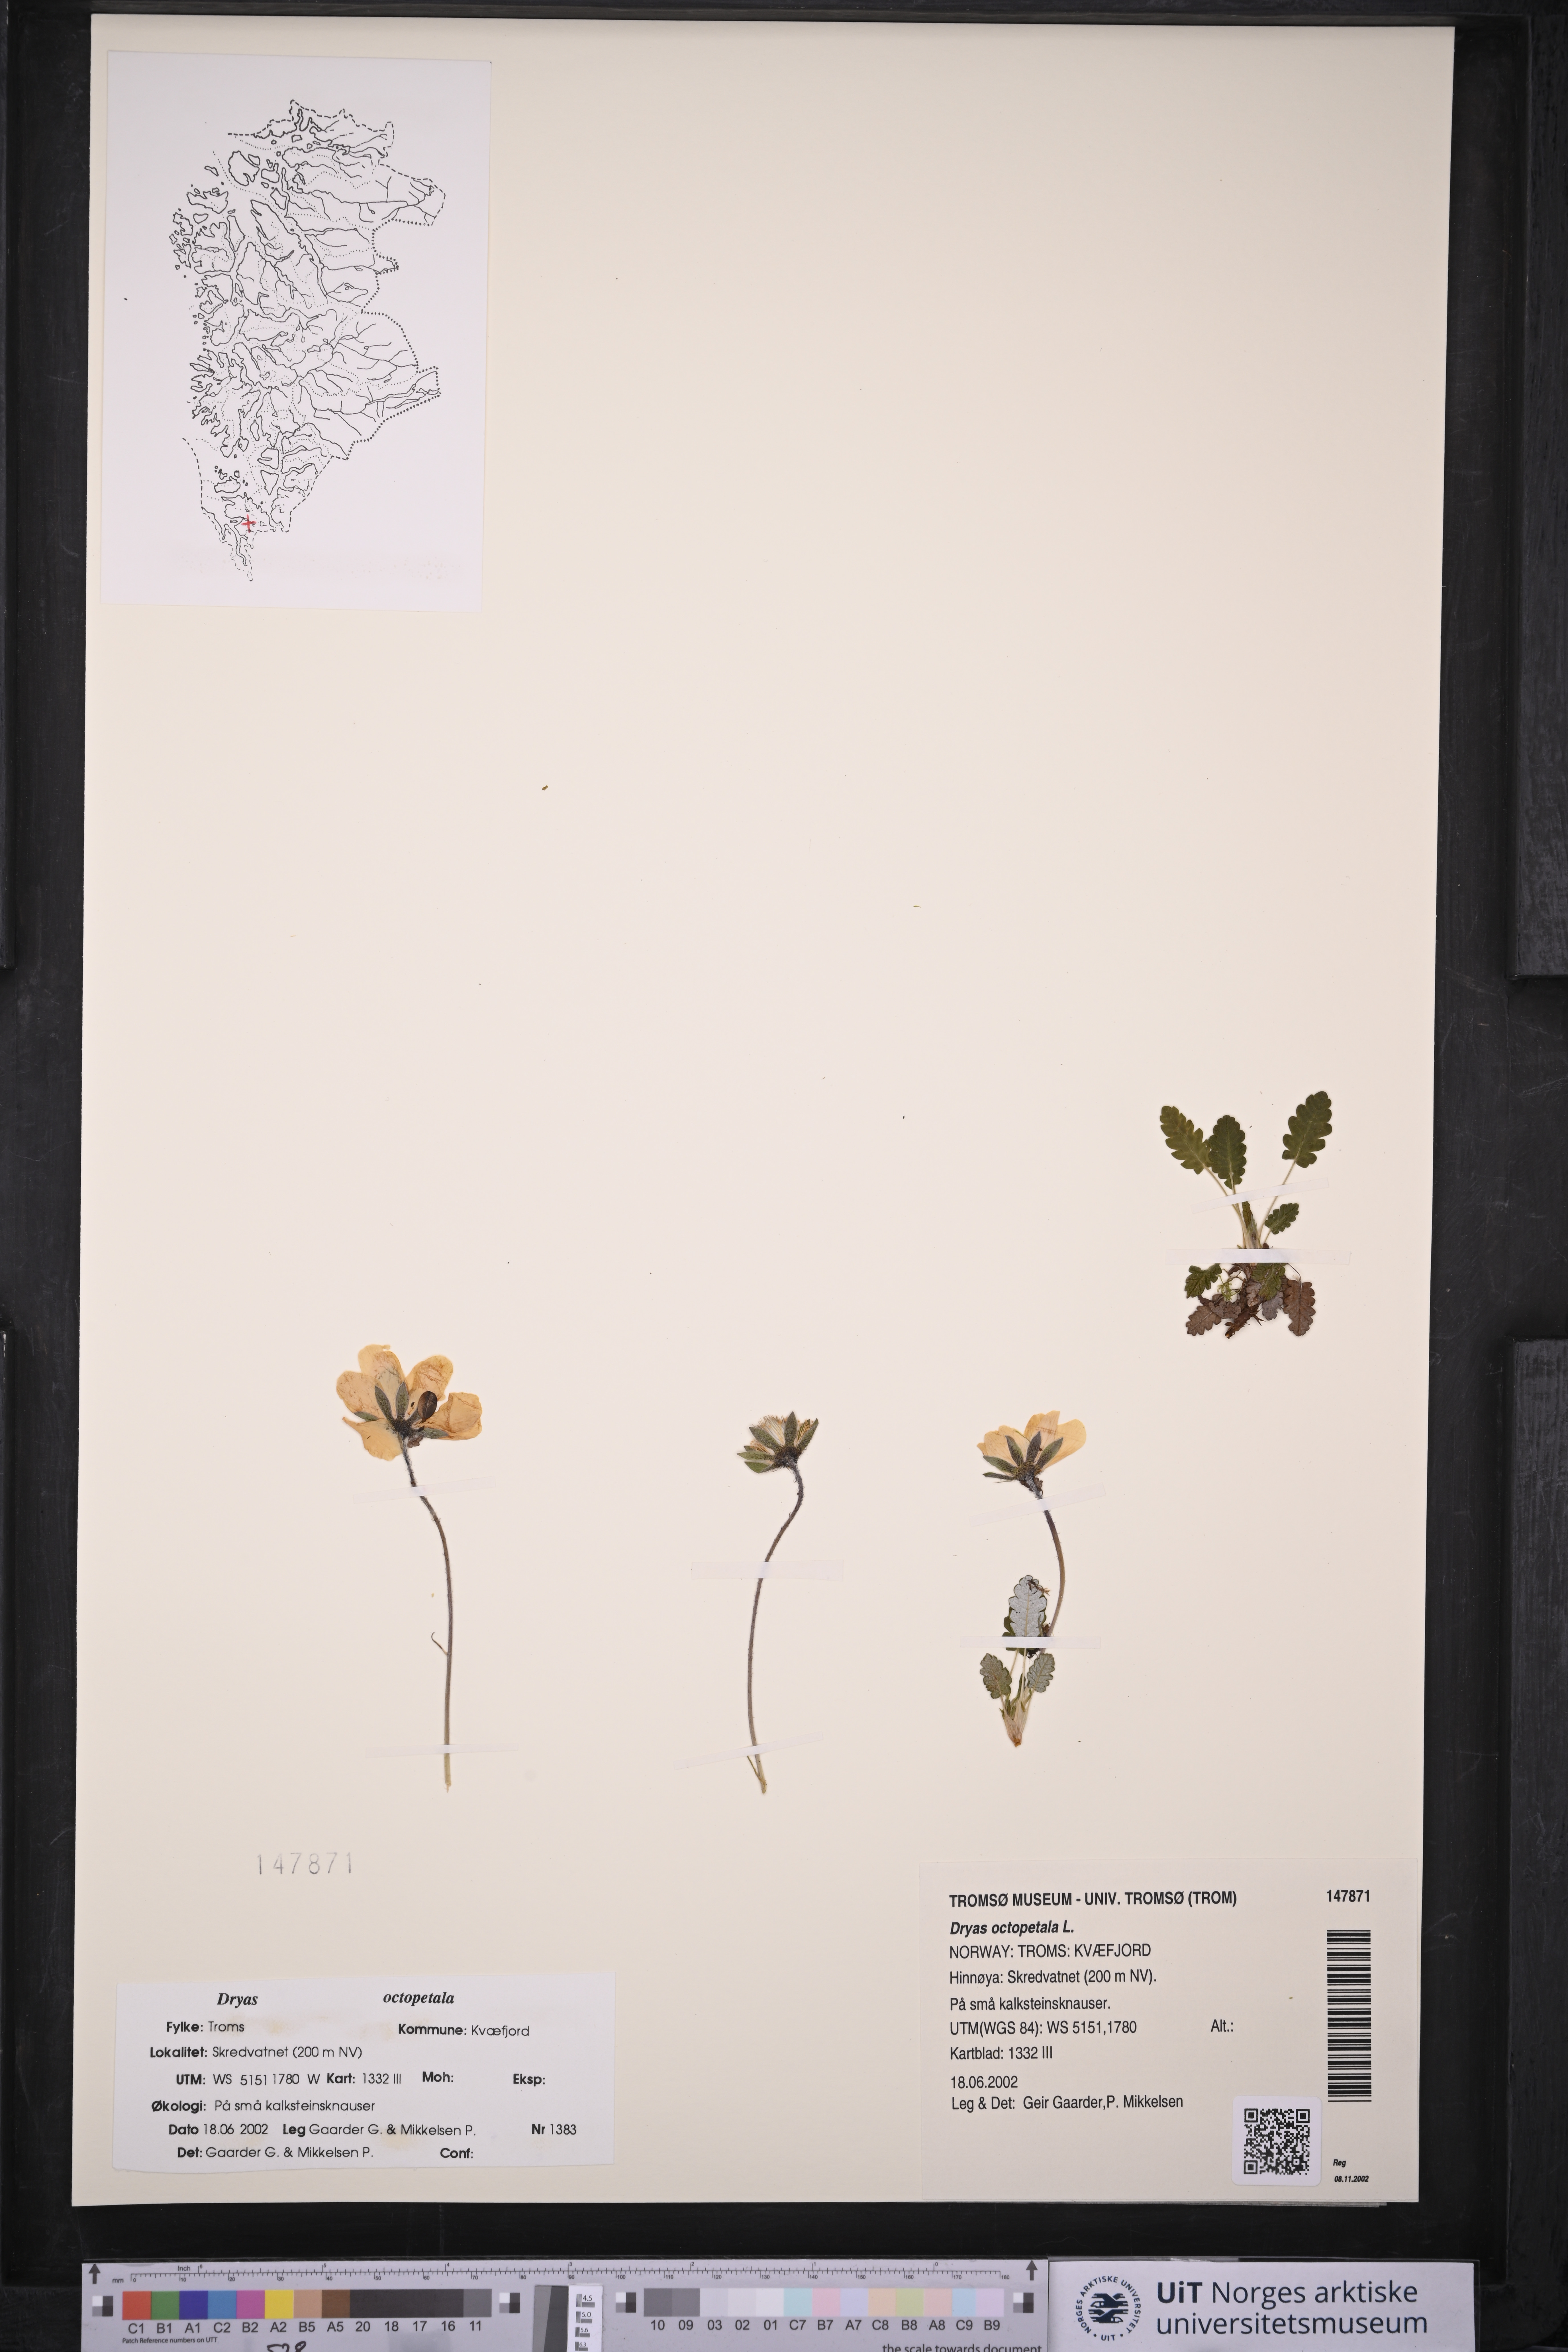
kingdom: Plantae
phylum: Tracheophyta
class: Magnoliopsida
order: Rosales
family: Rosaceae
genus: Dryas
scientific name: Dryas octopetala
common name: Eight-petal mountain-avens
